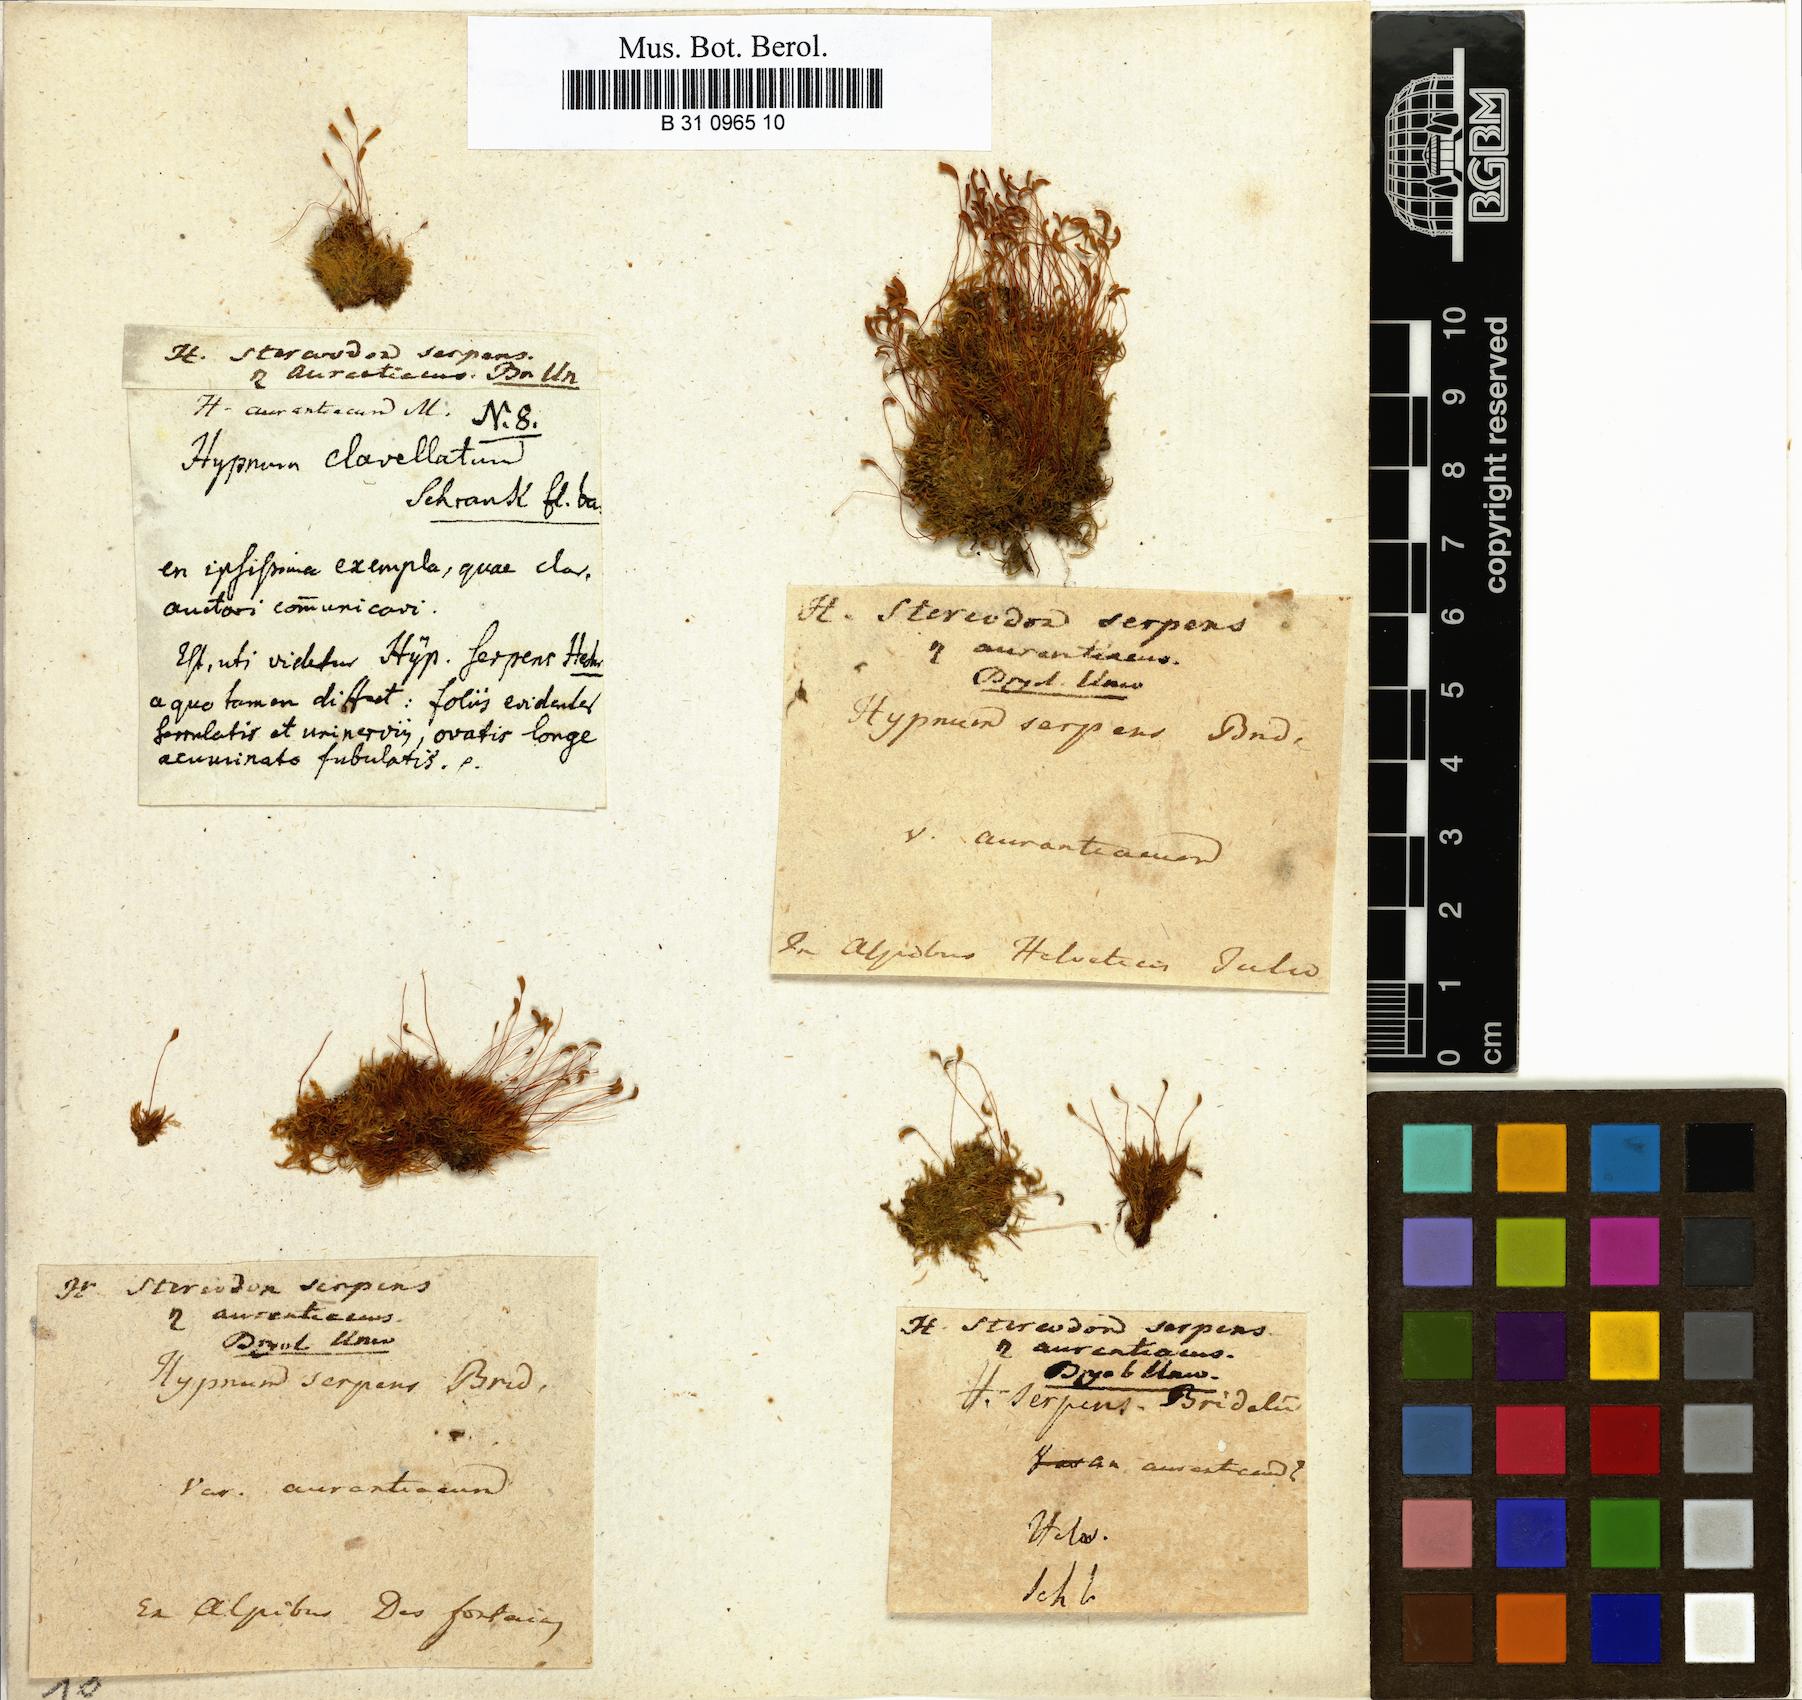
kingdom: Plantae
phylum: Bryophyta
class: Bryopsida
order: Hypnales
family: Amblystegiaceae
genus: Amblystegium
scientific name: Amblystegium serpens
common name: Jurkatzka's feather moss
